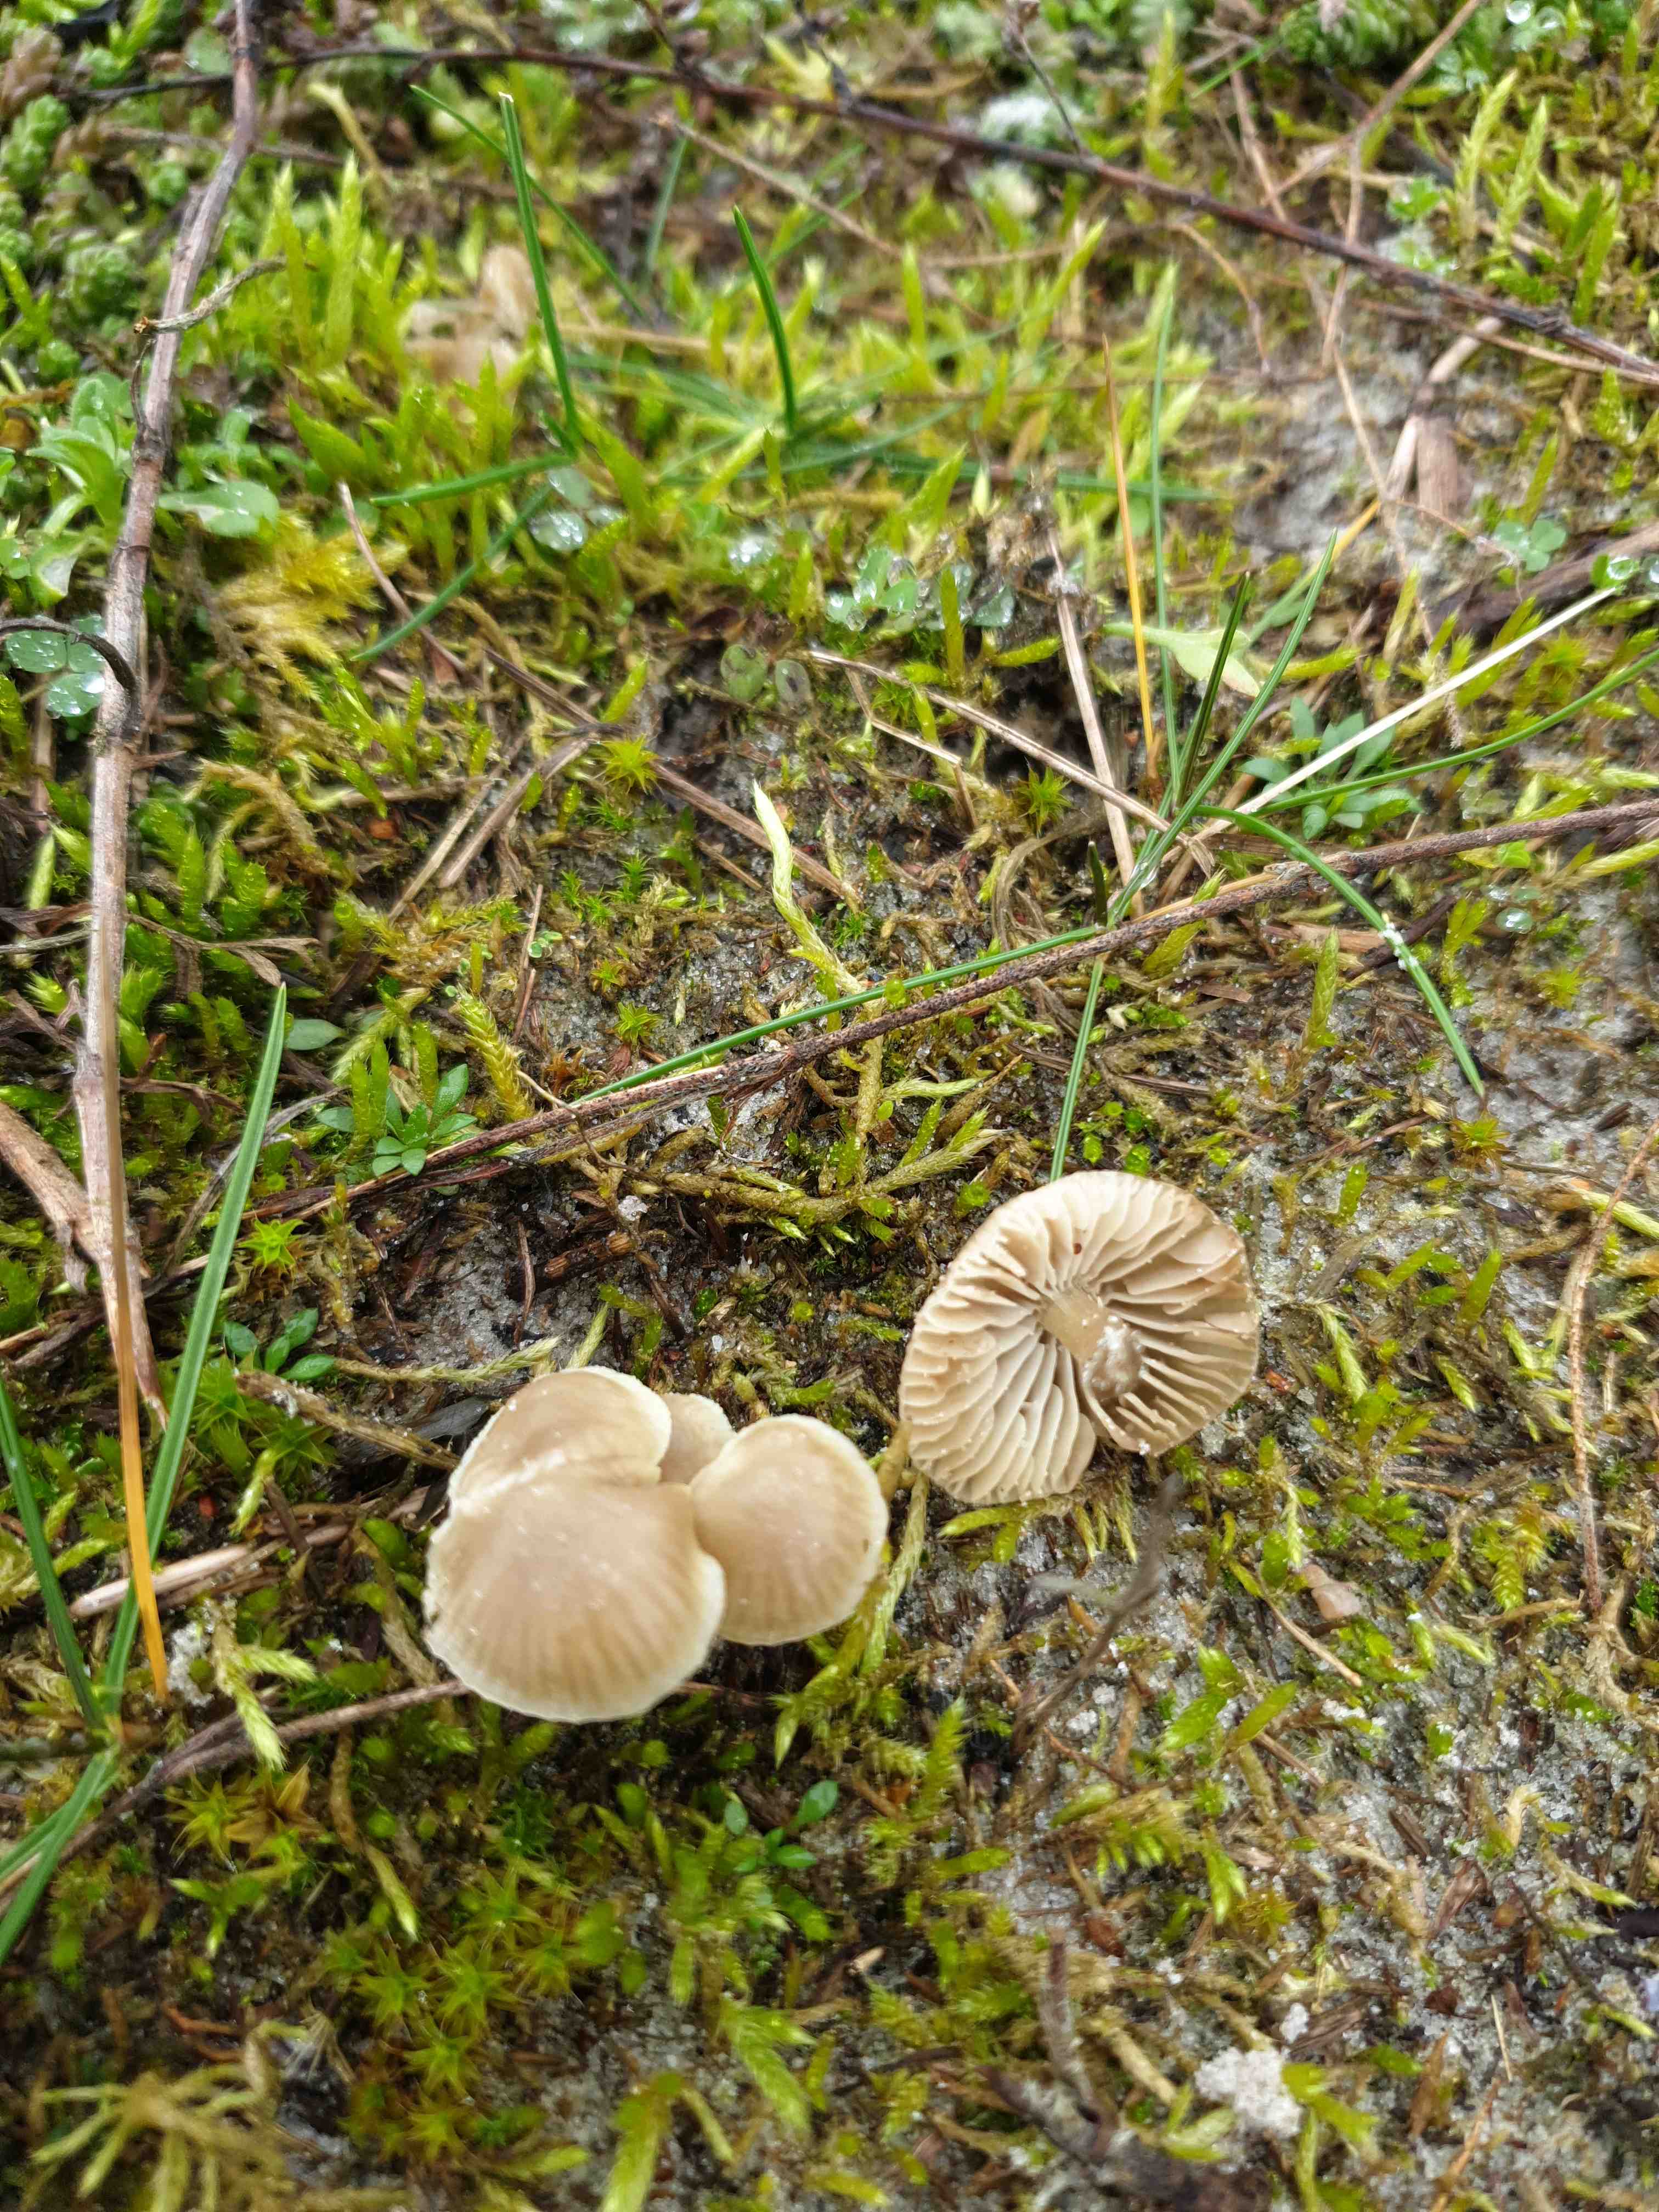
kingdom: Fungi
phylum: Basidiomycota
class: Agaricomycetes
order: Agaricales
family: Mycenaceae
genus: Mycena
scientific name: Mycena chlorantha
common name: klit-huesvamp
